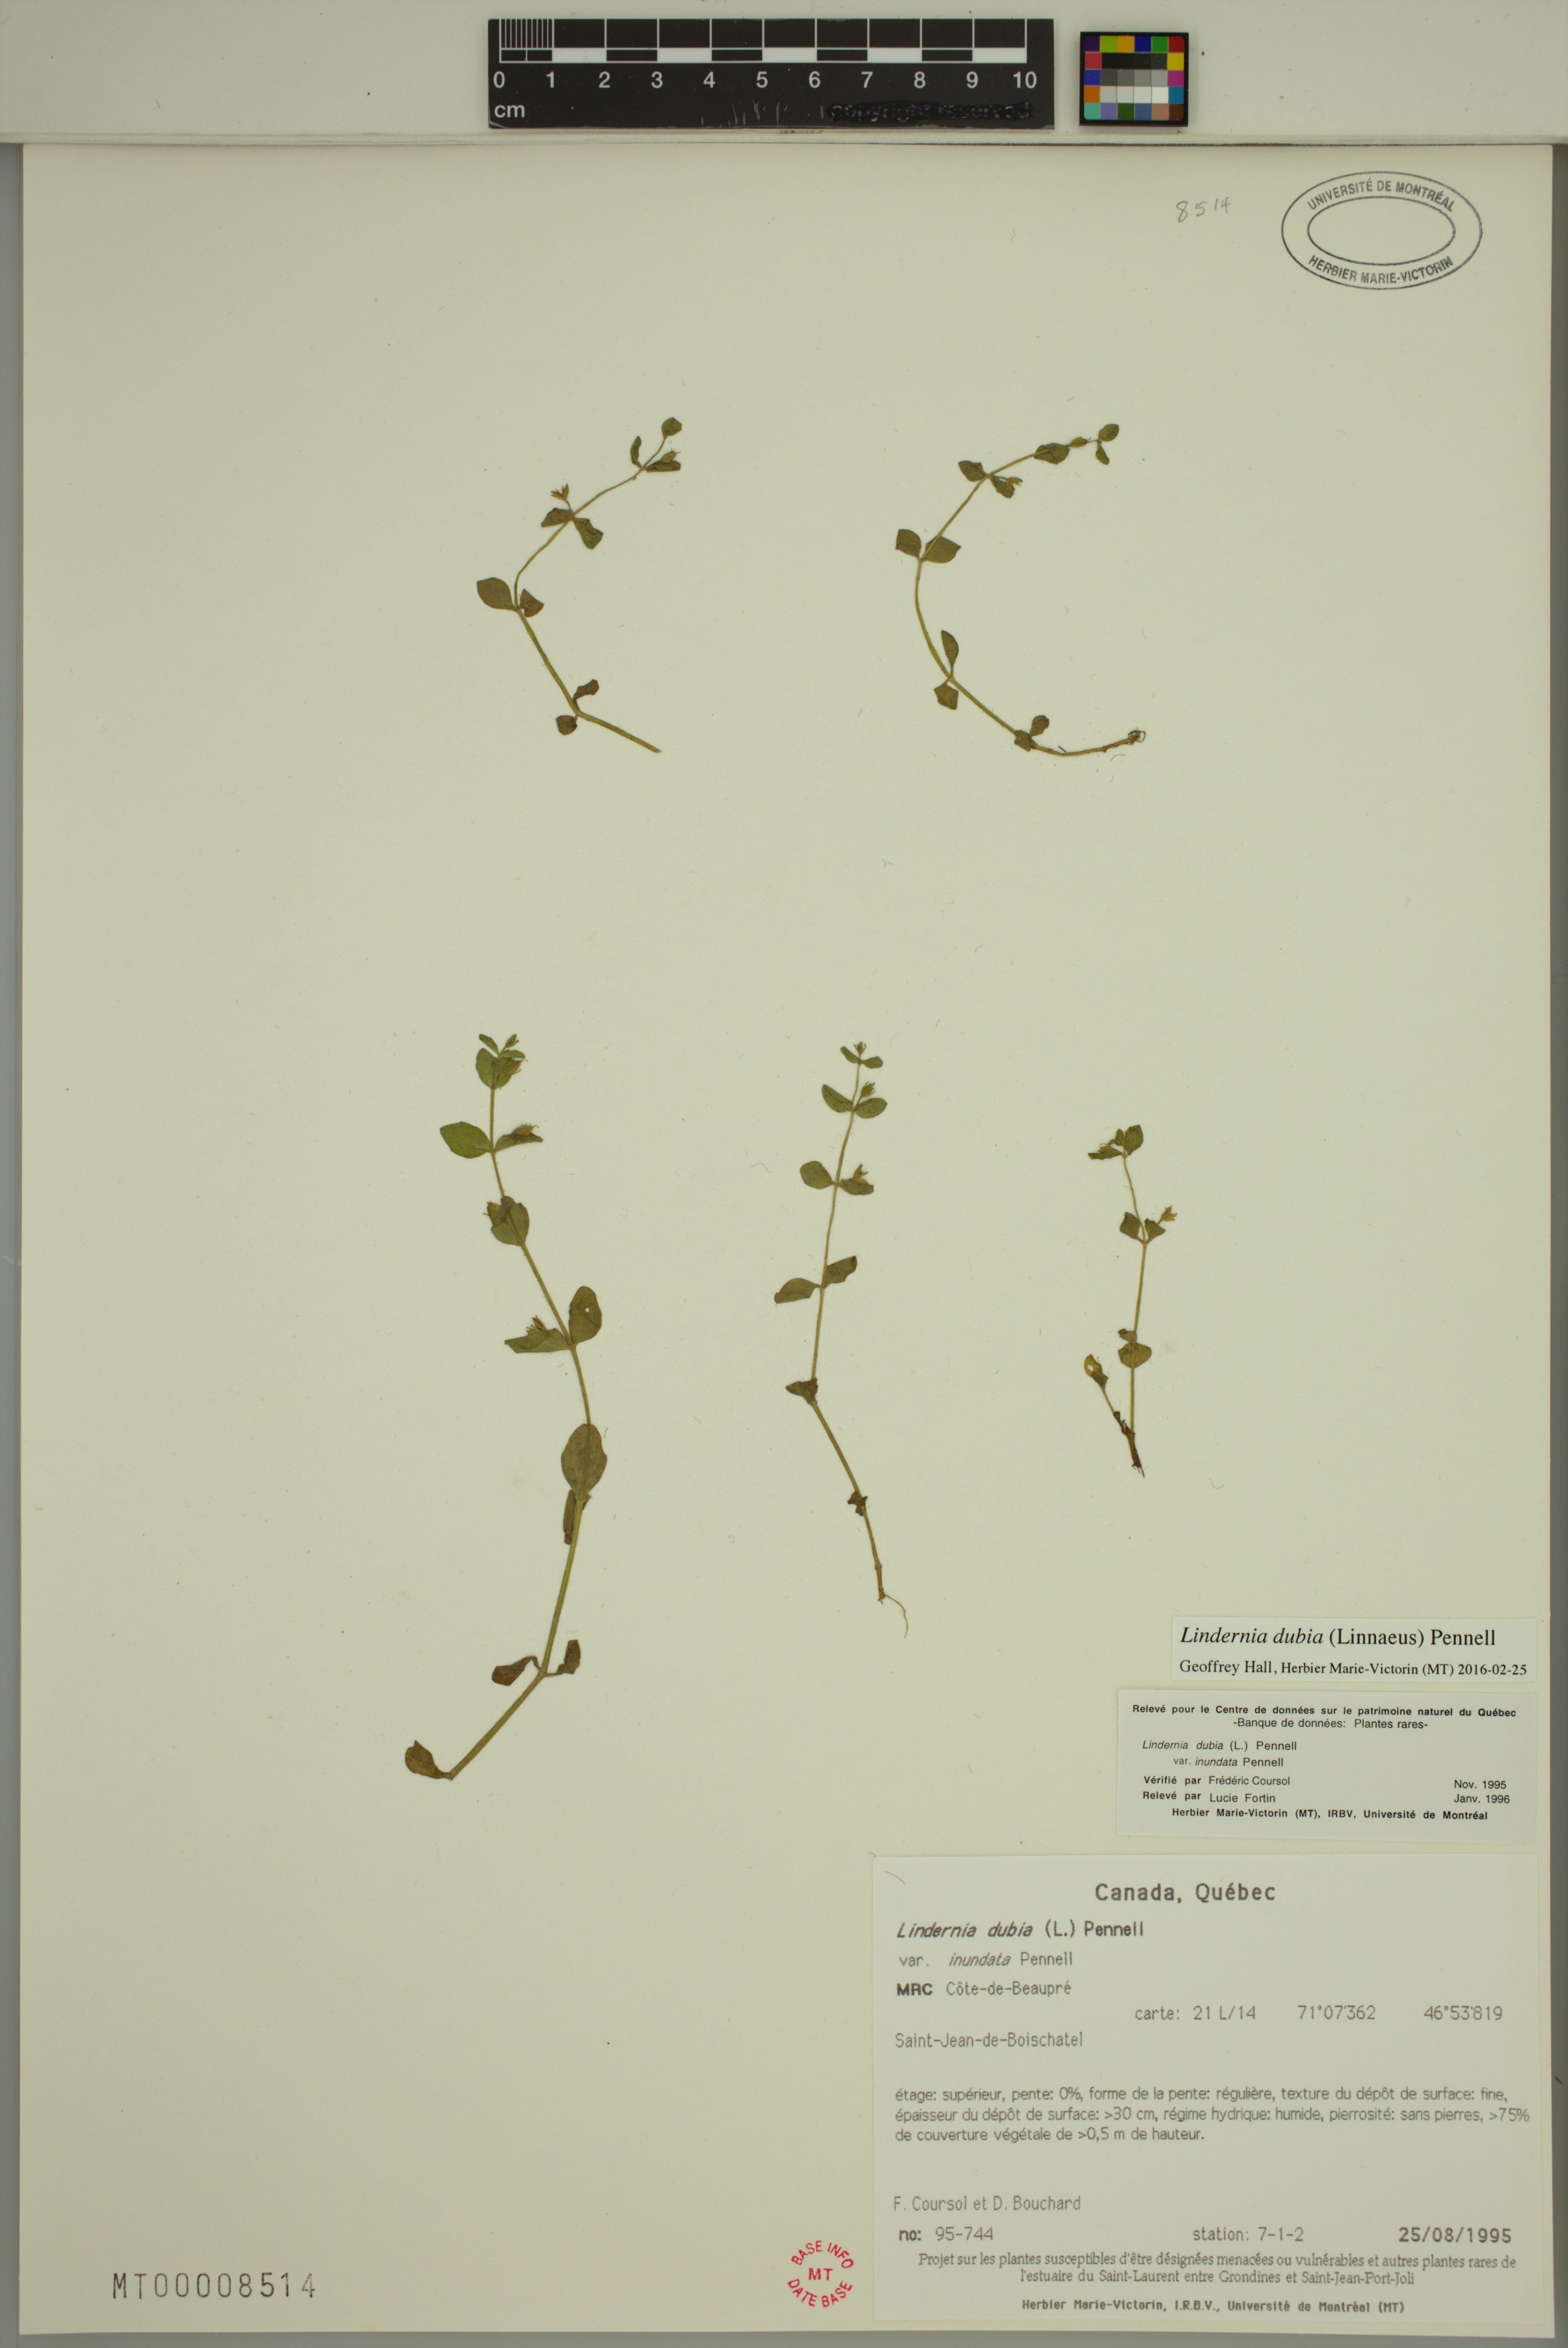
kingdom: Plantae
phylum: Tracheophyta
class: Magnoliopsida
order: Lamiales
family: Linderniaceae
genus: Lindernia
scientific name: Lindernia dubia
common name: Annual false pimpernel
